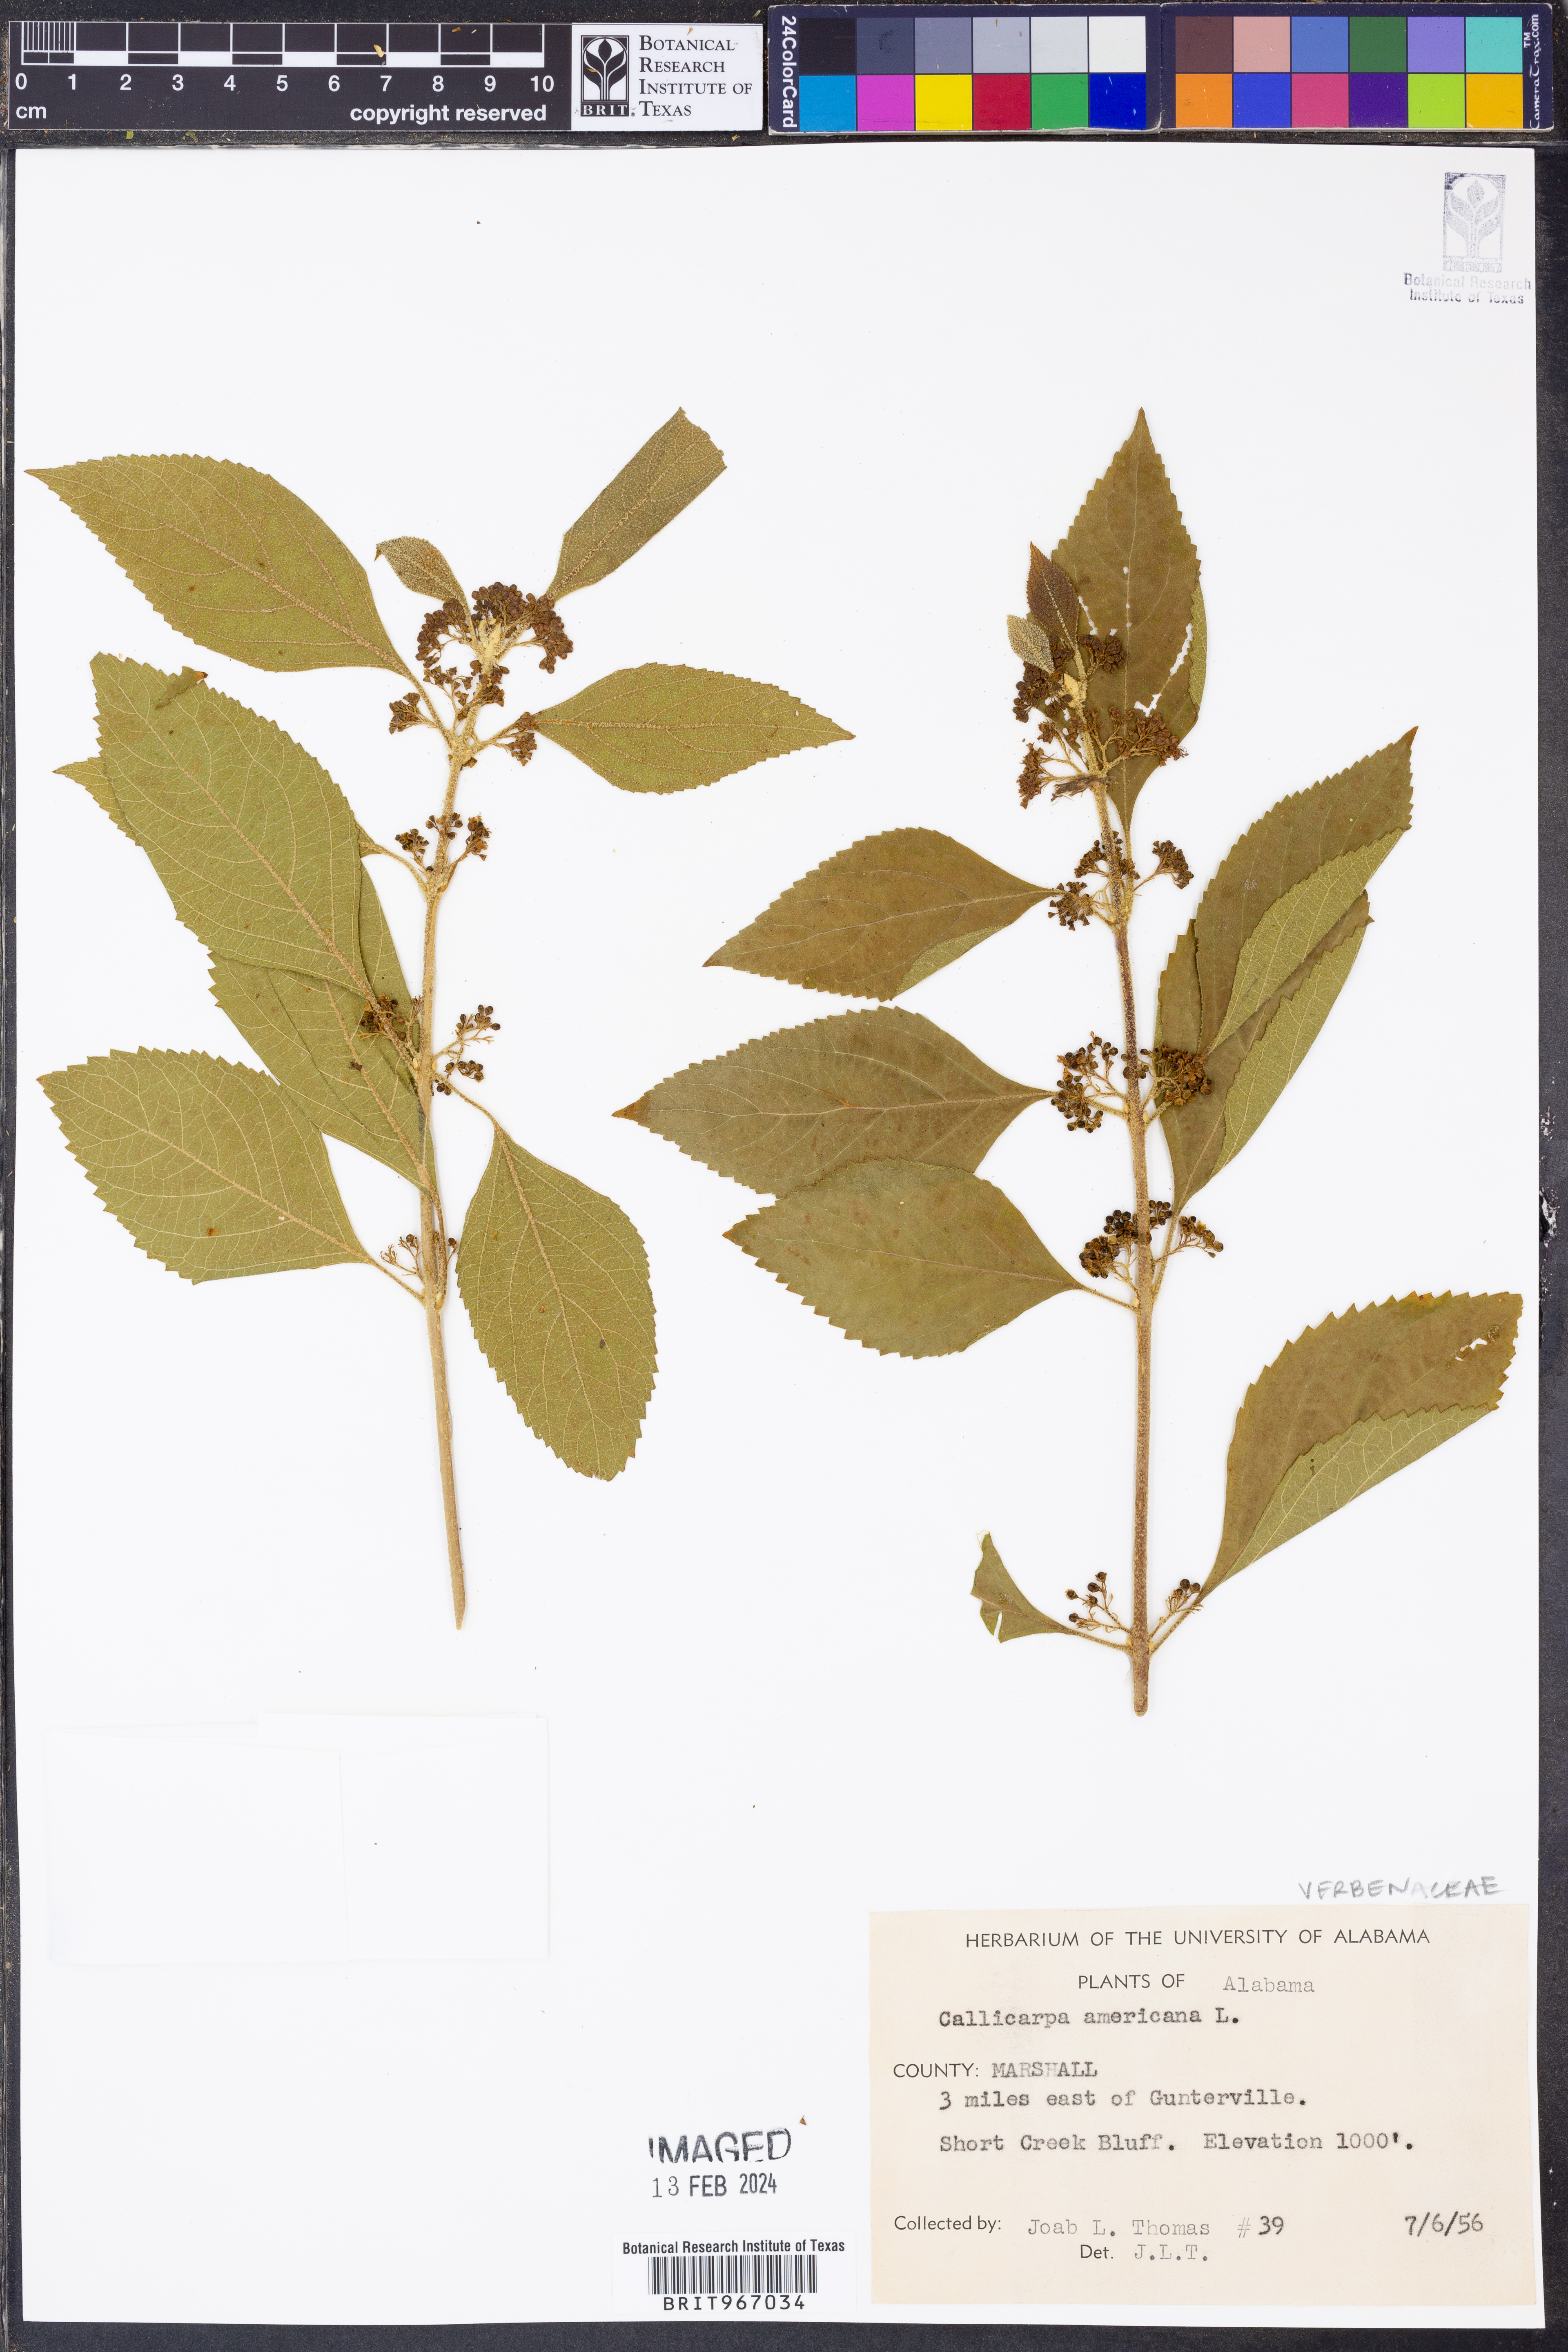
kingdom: Plantae
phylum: Tracheophyta
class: Magnoliopsida
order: Lamiales
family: Lamiaceae
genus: Callicarpa
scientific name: Callicarpa americana
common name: American beautyberry
